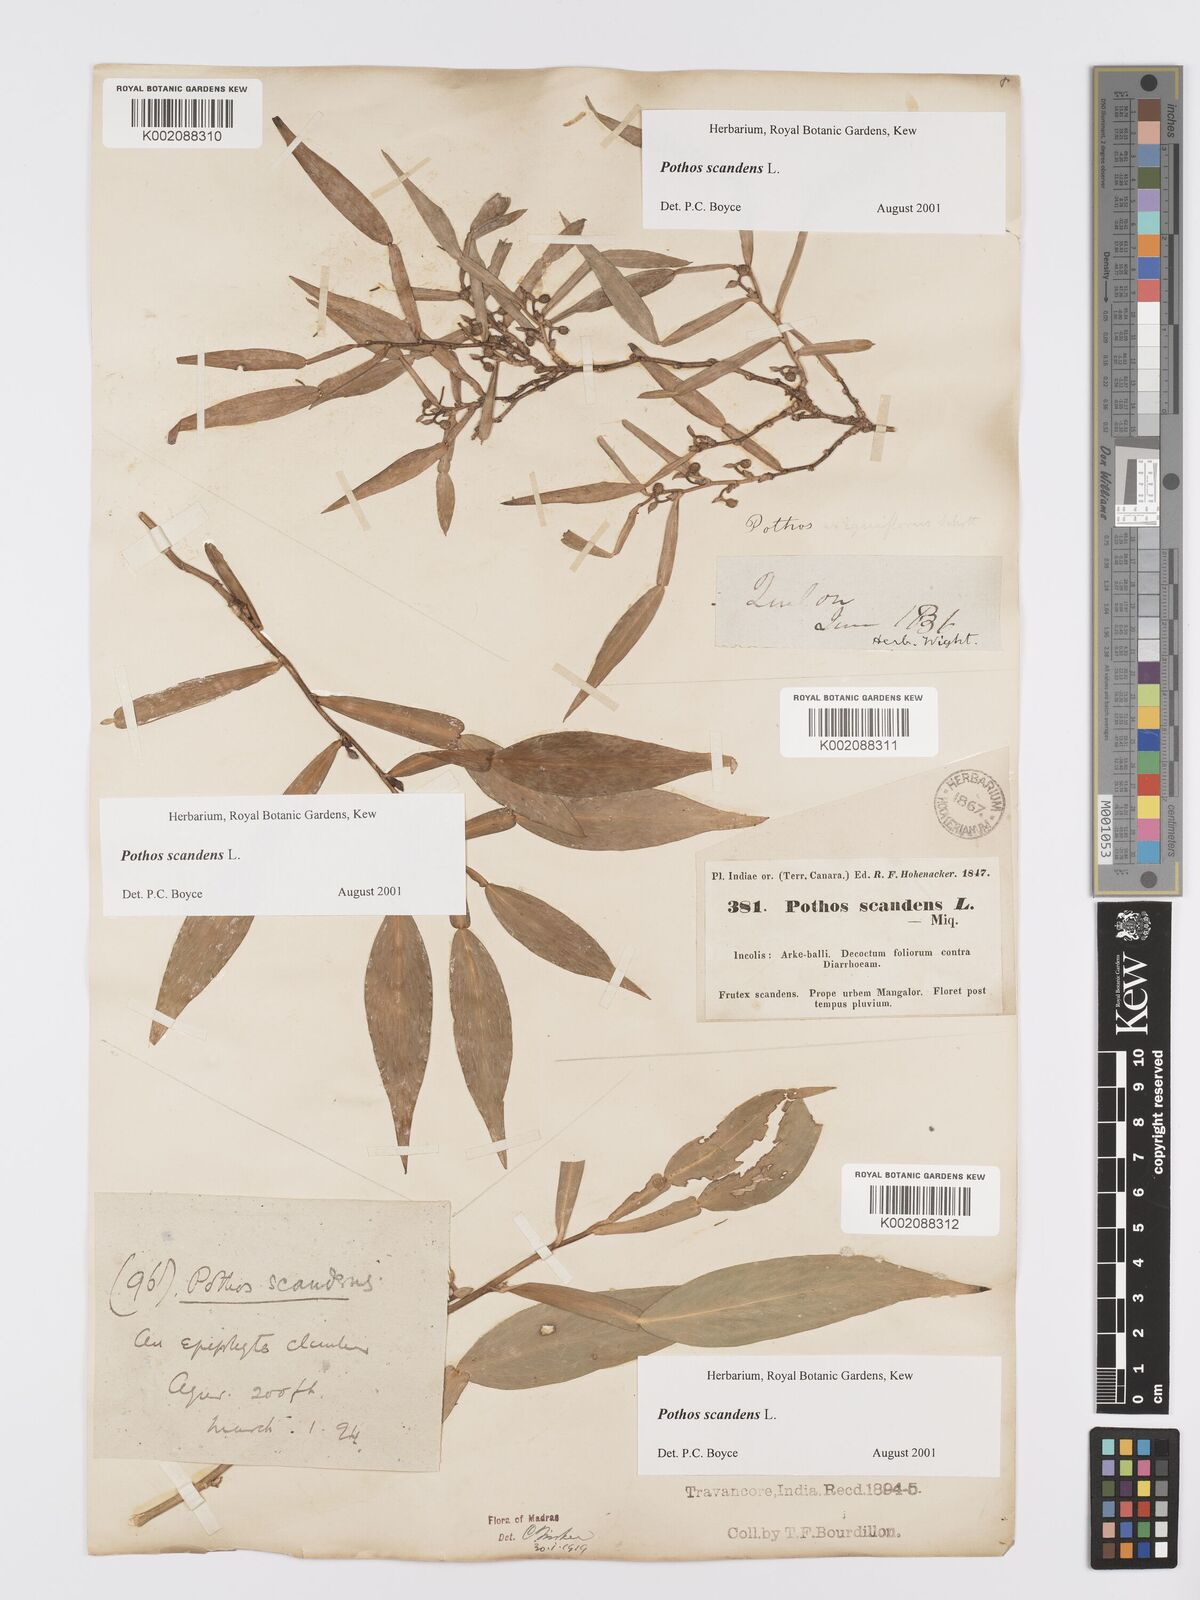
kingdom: Plantae
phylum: Tracheophyta
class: Liliopsida
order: Alismatales
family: Araceae
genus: Pothos
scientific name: Pothos scandens
